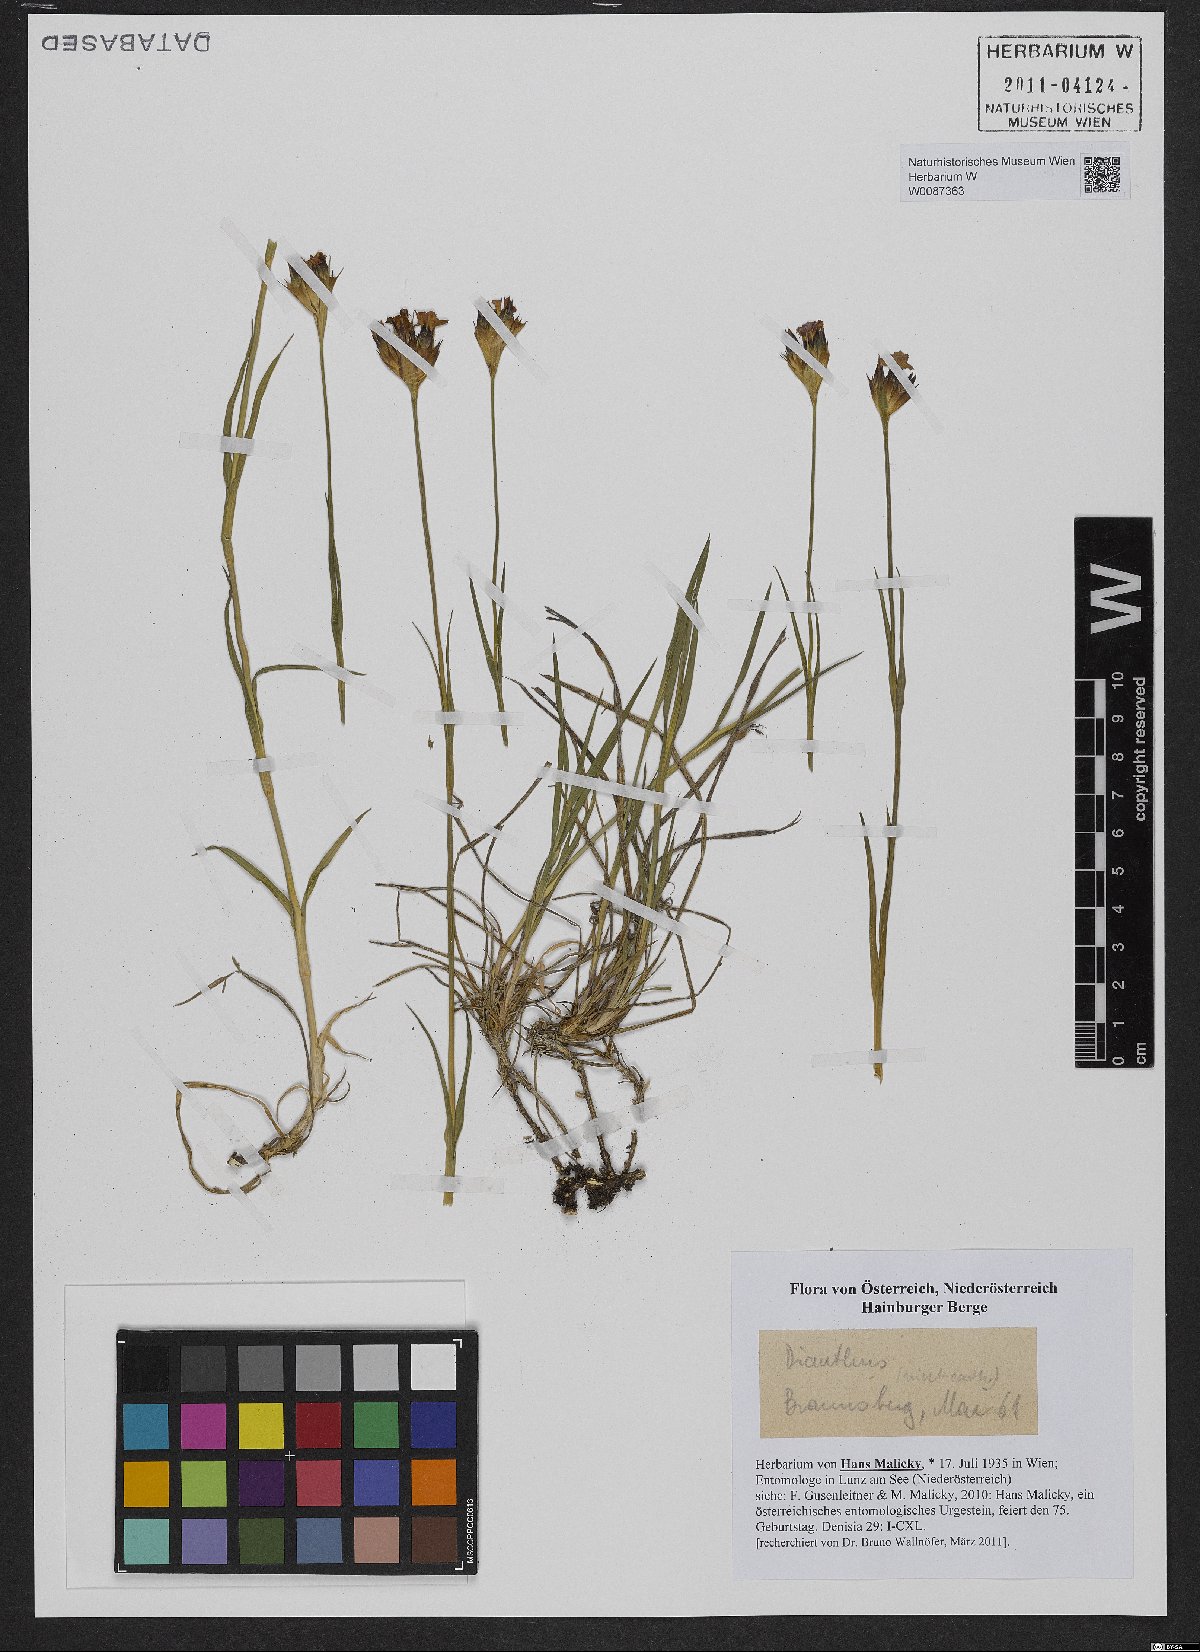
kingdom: Plantae
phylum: Tracheophyta
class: Magnoliopsida
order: Caryophyllales
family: Caryophyllaceae
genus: Dianthus
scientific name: Dianthus pontederae
